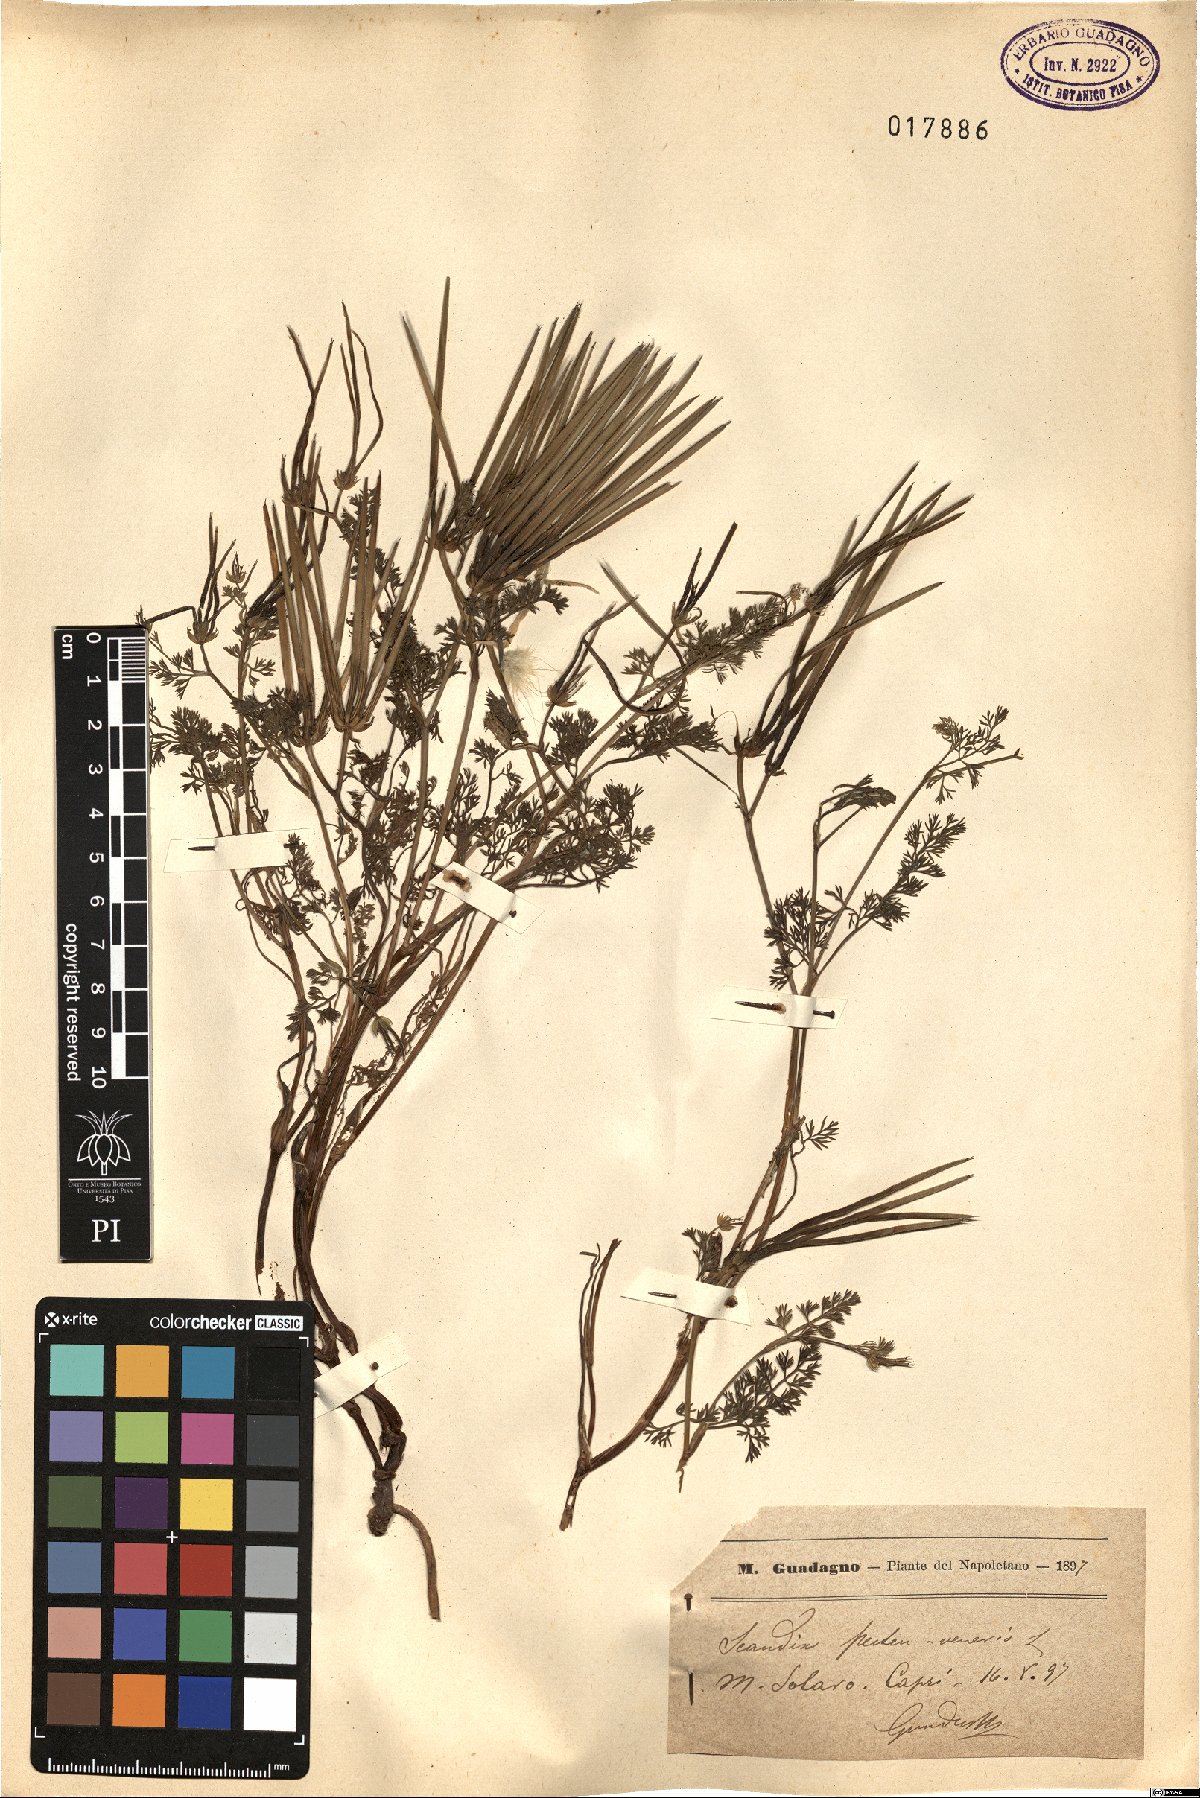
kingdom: Plantae
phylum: Tracheophyta
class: Magnoliopsida
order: Apiales
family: Apiaceae
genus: Scandix
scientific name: Scandix pecten-veneris
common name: Shepherd's-needle
